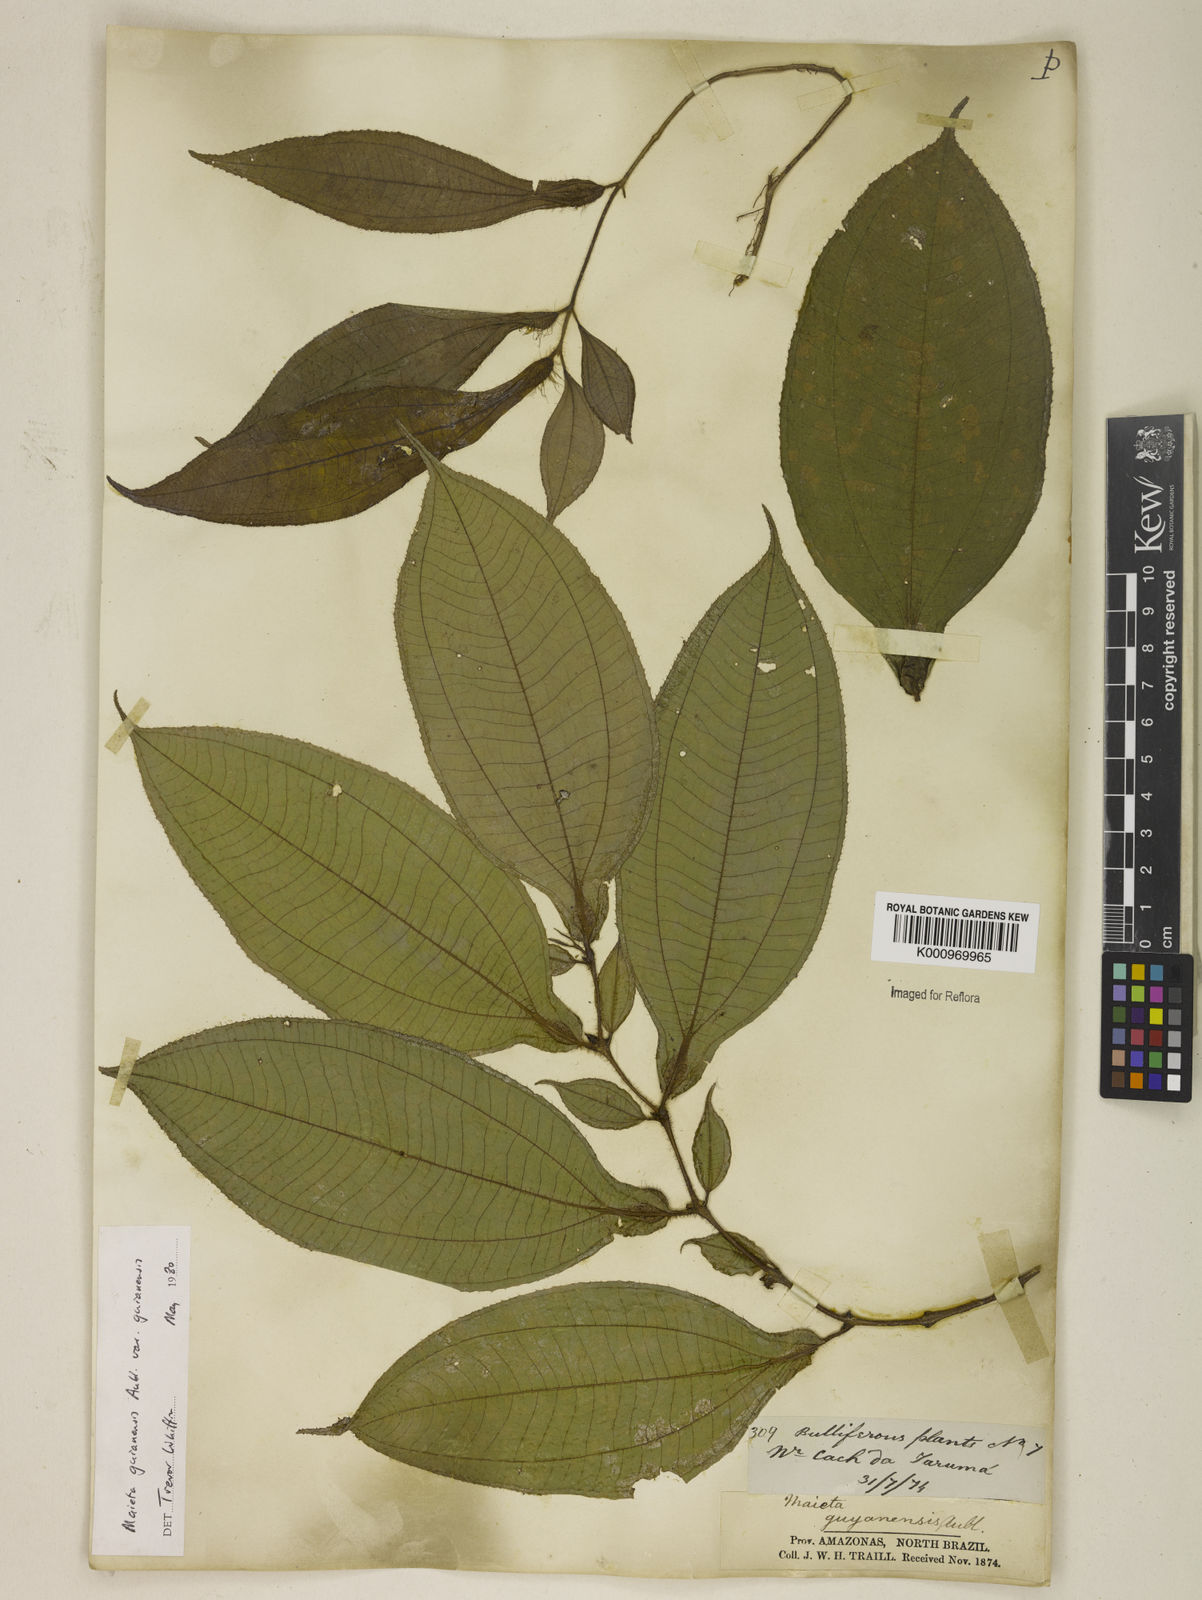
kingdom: Plantae
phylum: Tracheophyta
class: Magnoliopsida
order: Myrtales
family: Melastomataceae
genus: Miconia
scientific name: Miconia mayeta
